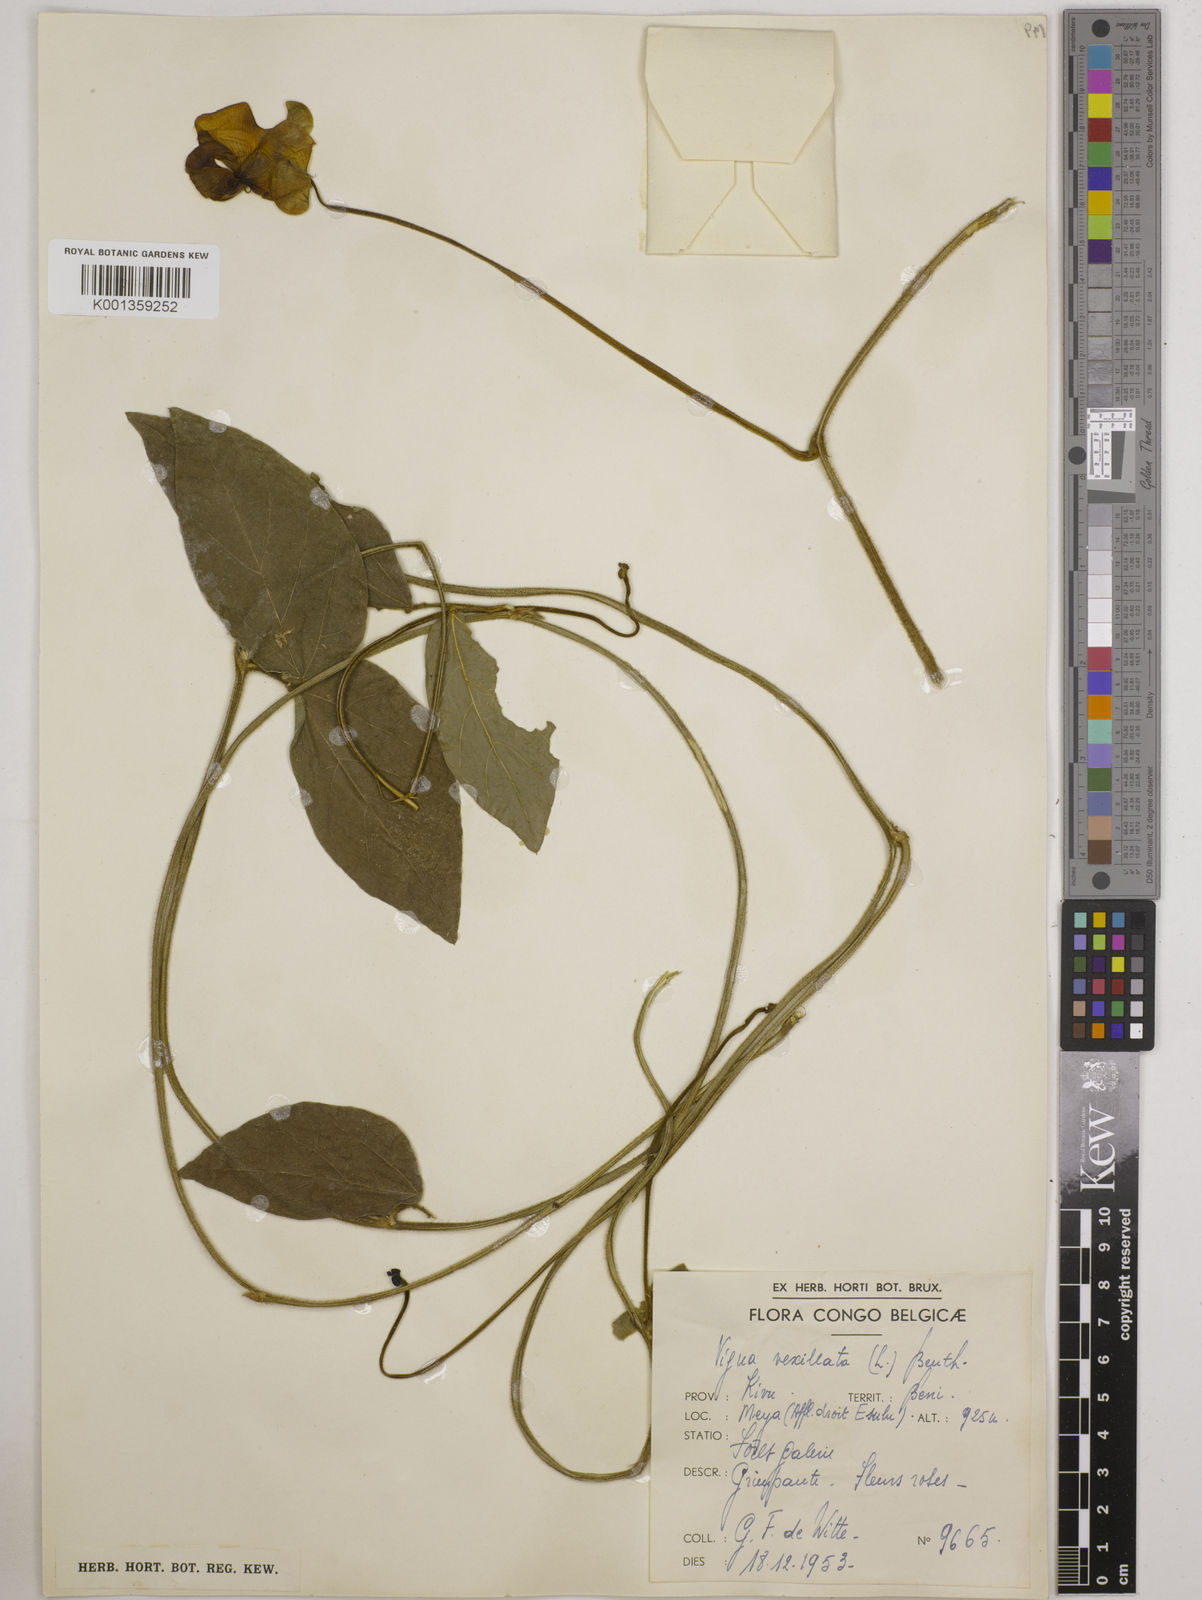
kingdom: Plantae
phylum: Tracheophyta
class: Magnoliopsida
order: Fabales
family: Fabaceae
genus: Vigna
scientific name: Vigna vexillata
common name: Zombi pea
